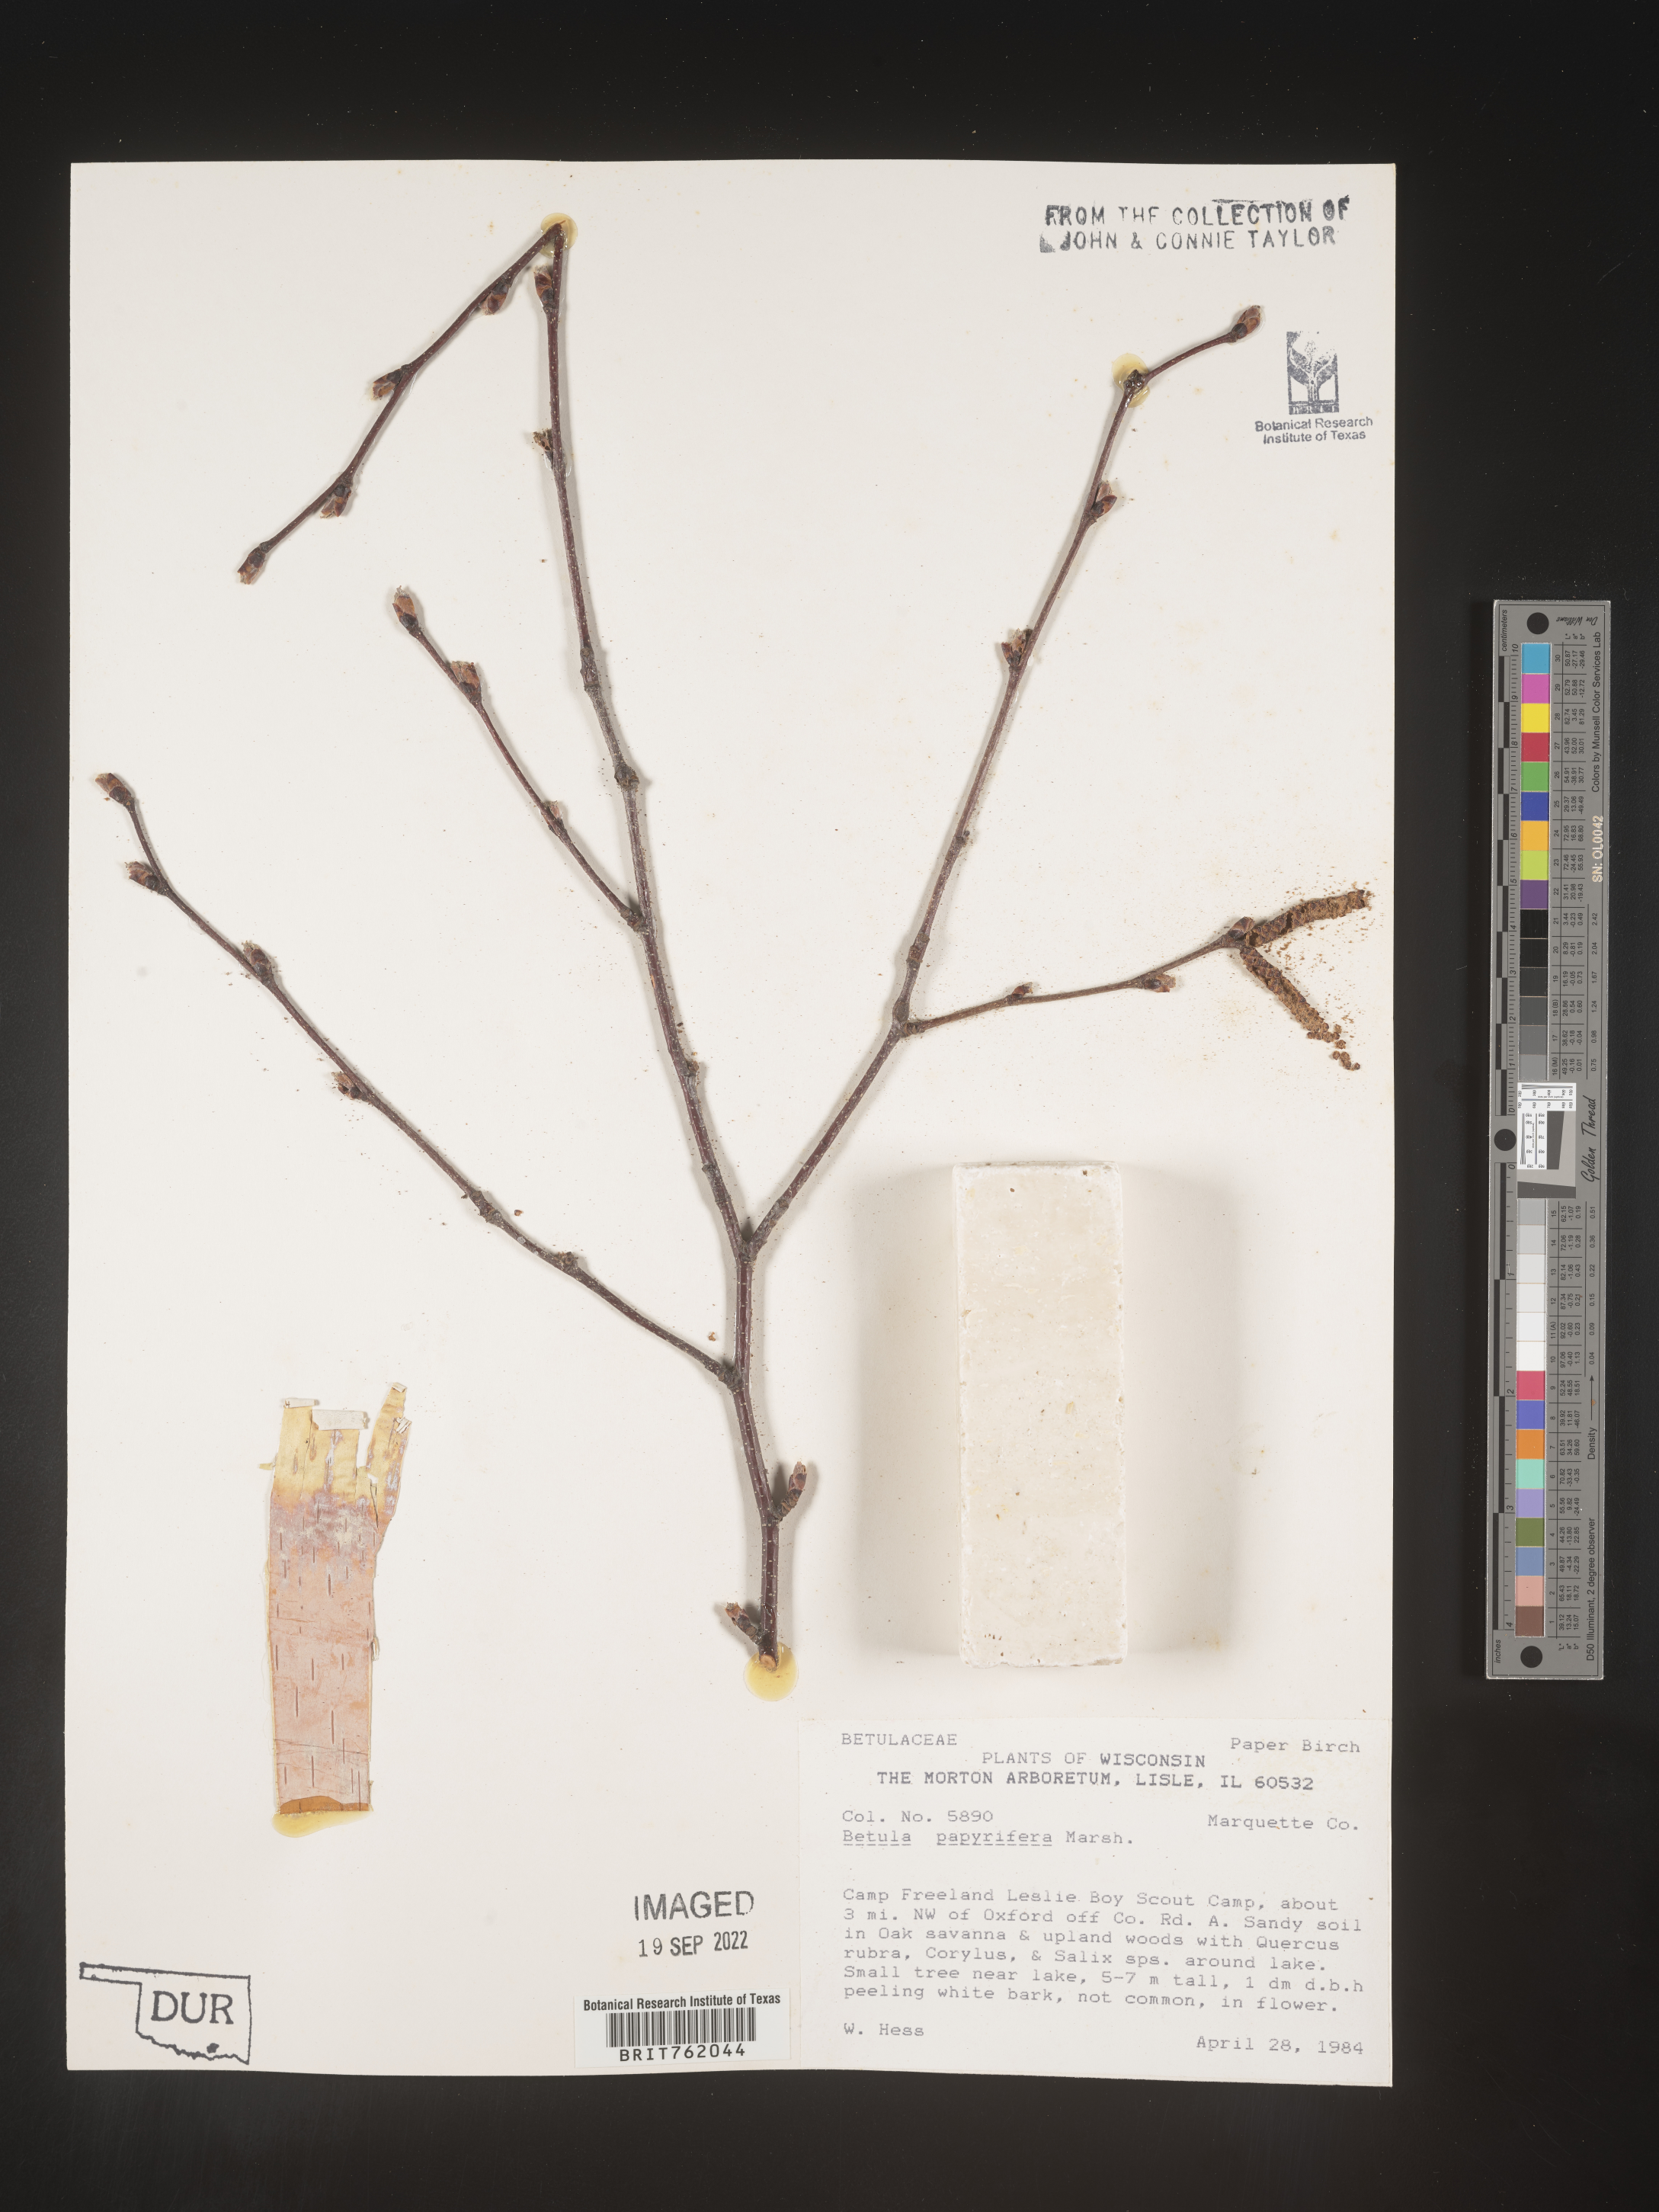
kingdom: Plantae
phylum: Tracheophyta
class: Magnoliopsida
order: Fagales
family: Betulaceae
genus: Betula
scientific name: Betula papyrifera
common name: Paper birch
